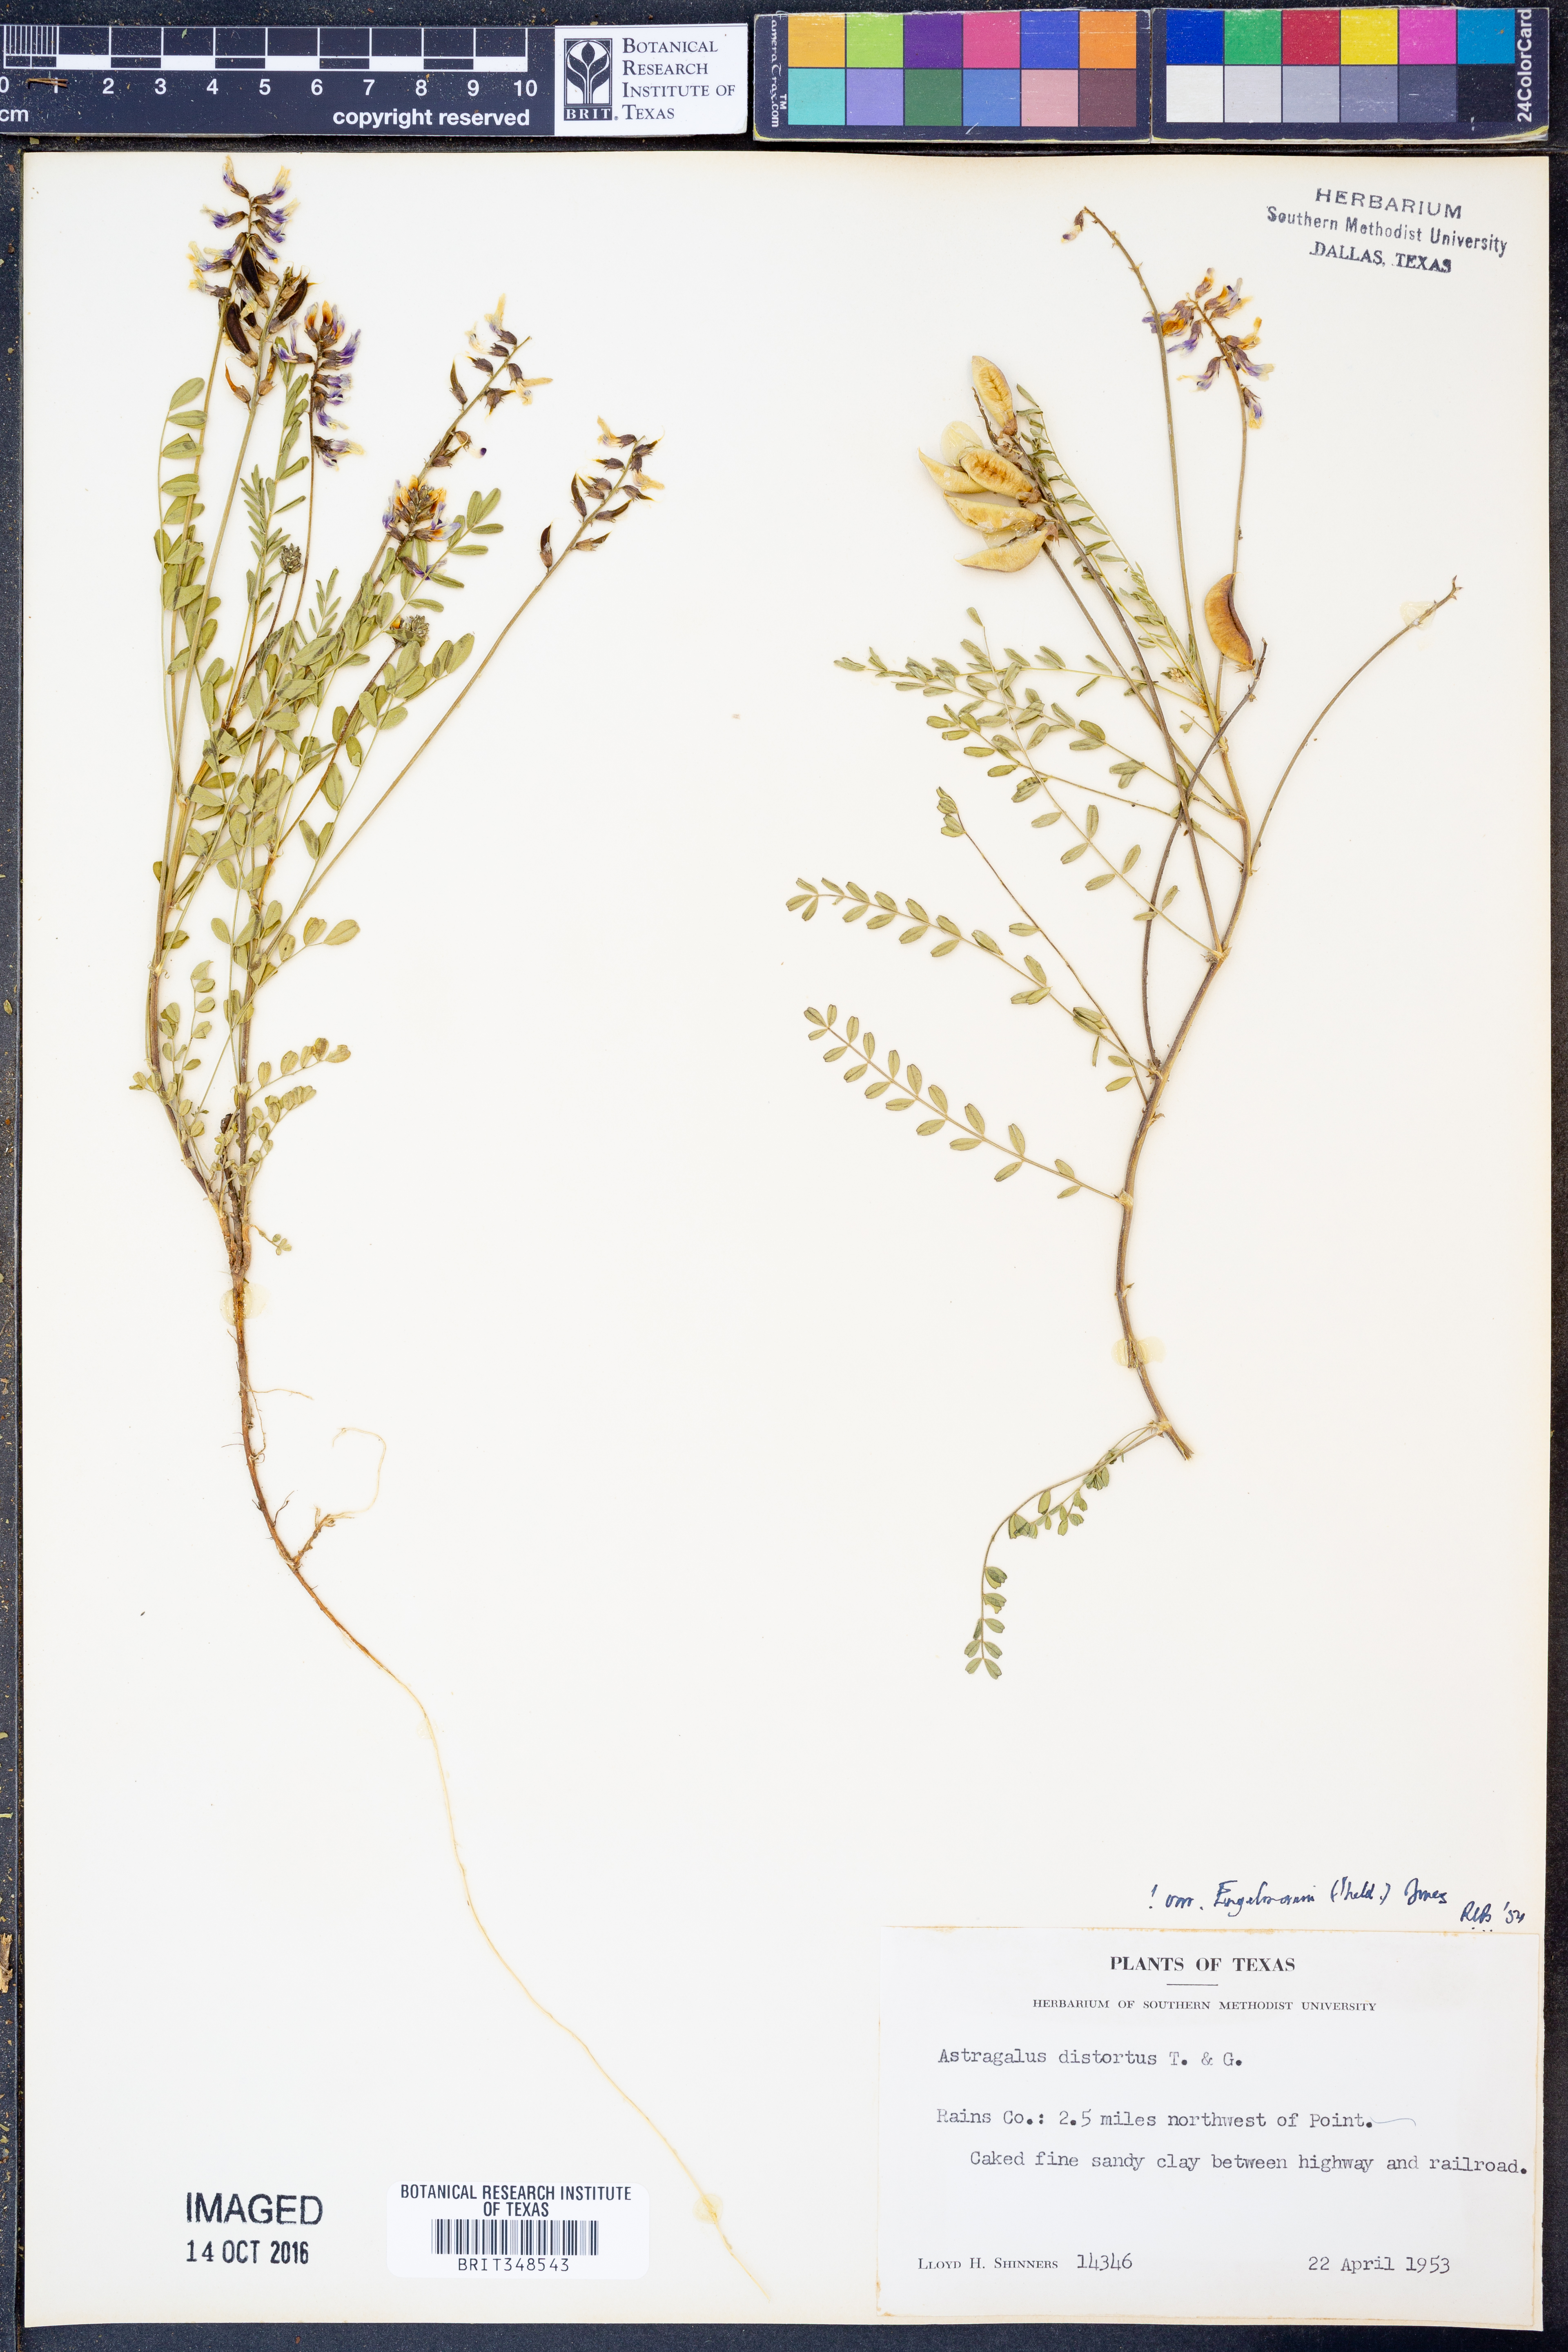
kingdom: Plantae
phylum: Tracheophyta
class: Magnoliopsida
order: Fabales
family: Fabaceae
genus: Astragalus
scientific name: Astragalus distortus
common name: Ozark milk-vetch
